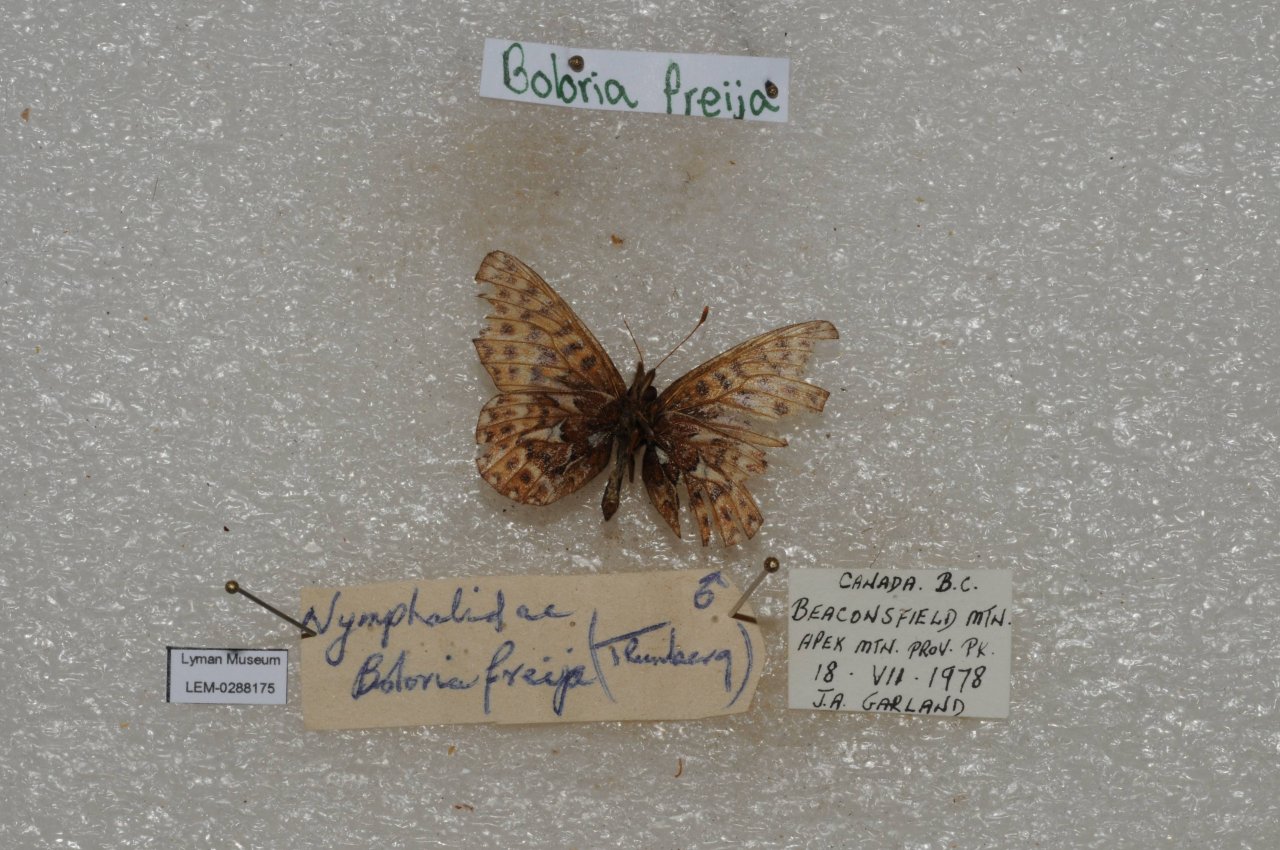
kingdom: Animalia
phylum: Arthropoda
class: Insecta
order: Lepidoptera
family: Nymphalidae
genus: Boloria
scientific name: Boloria freija
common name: Freija Fritillary
